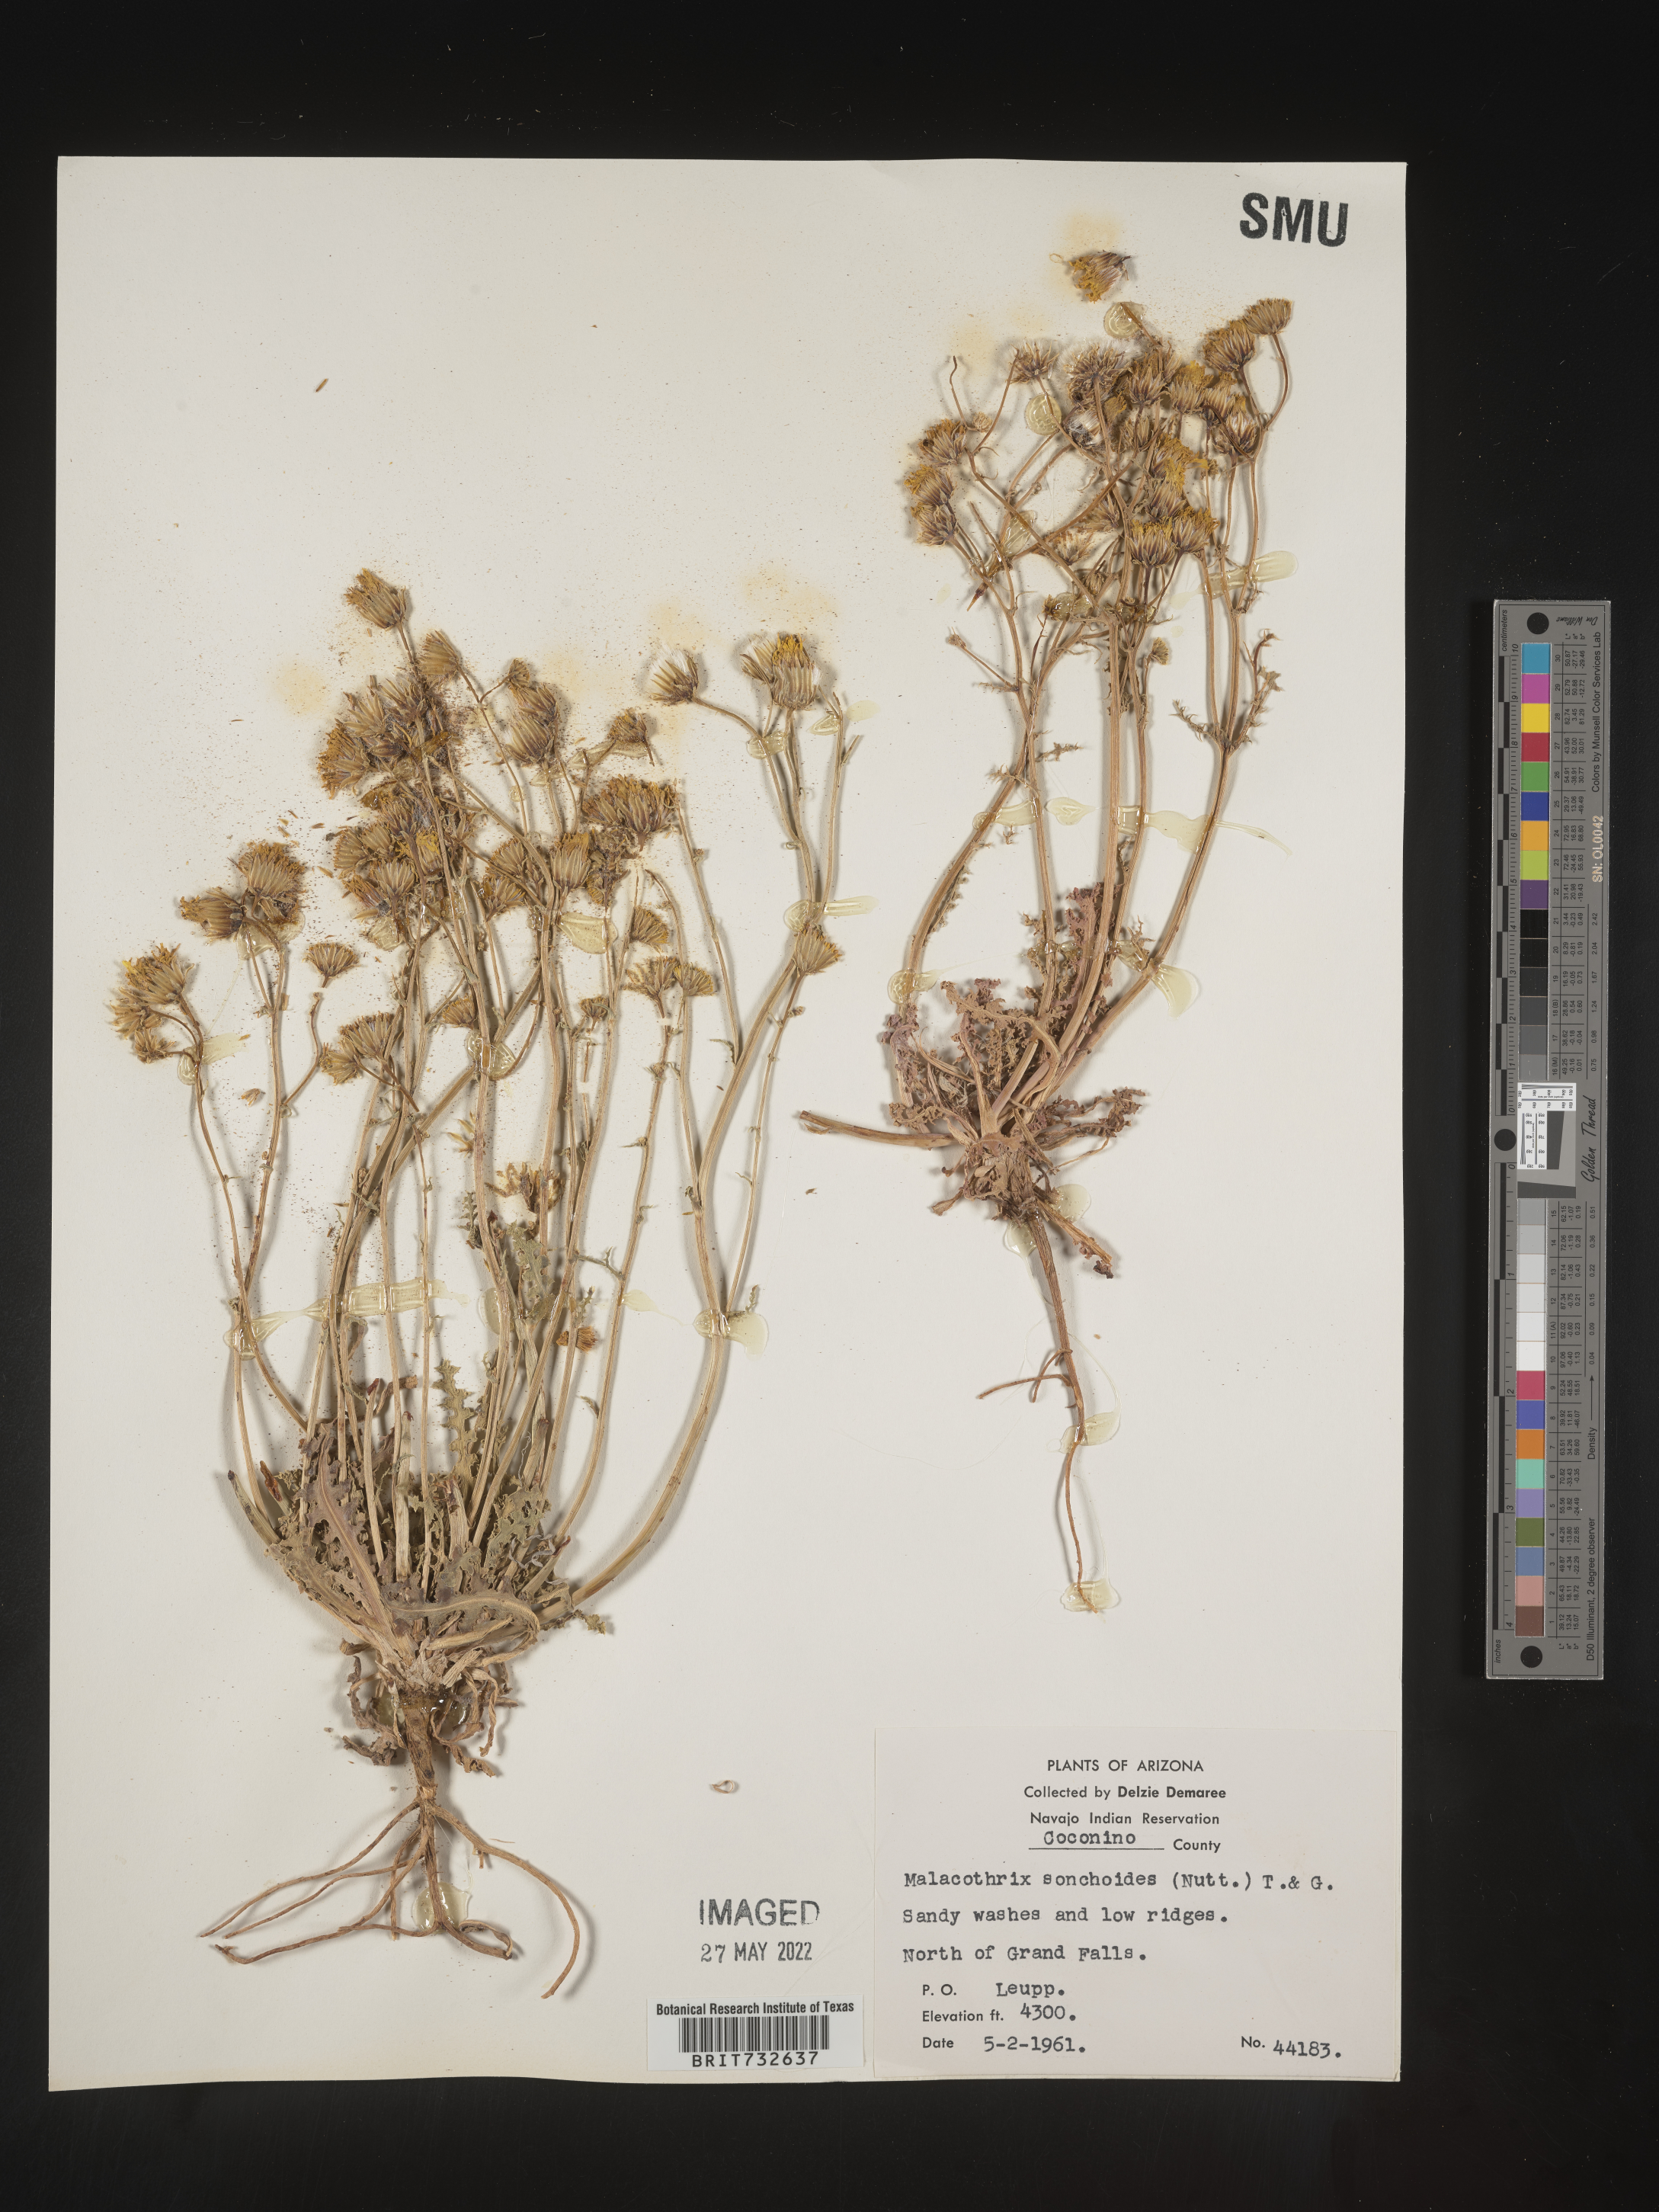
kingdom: Plantae
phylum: Tracheophyta
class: Magnoliopsida
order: Asterales
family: Asteraceae
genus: Malacothrix
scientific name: Malacothrix sonchoides
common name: Sow-thistle desert-dandelion
